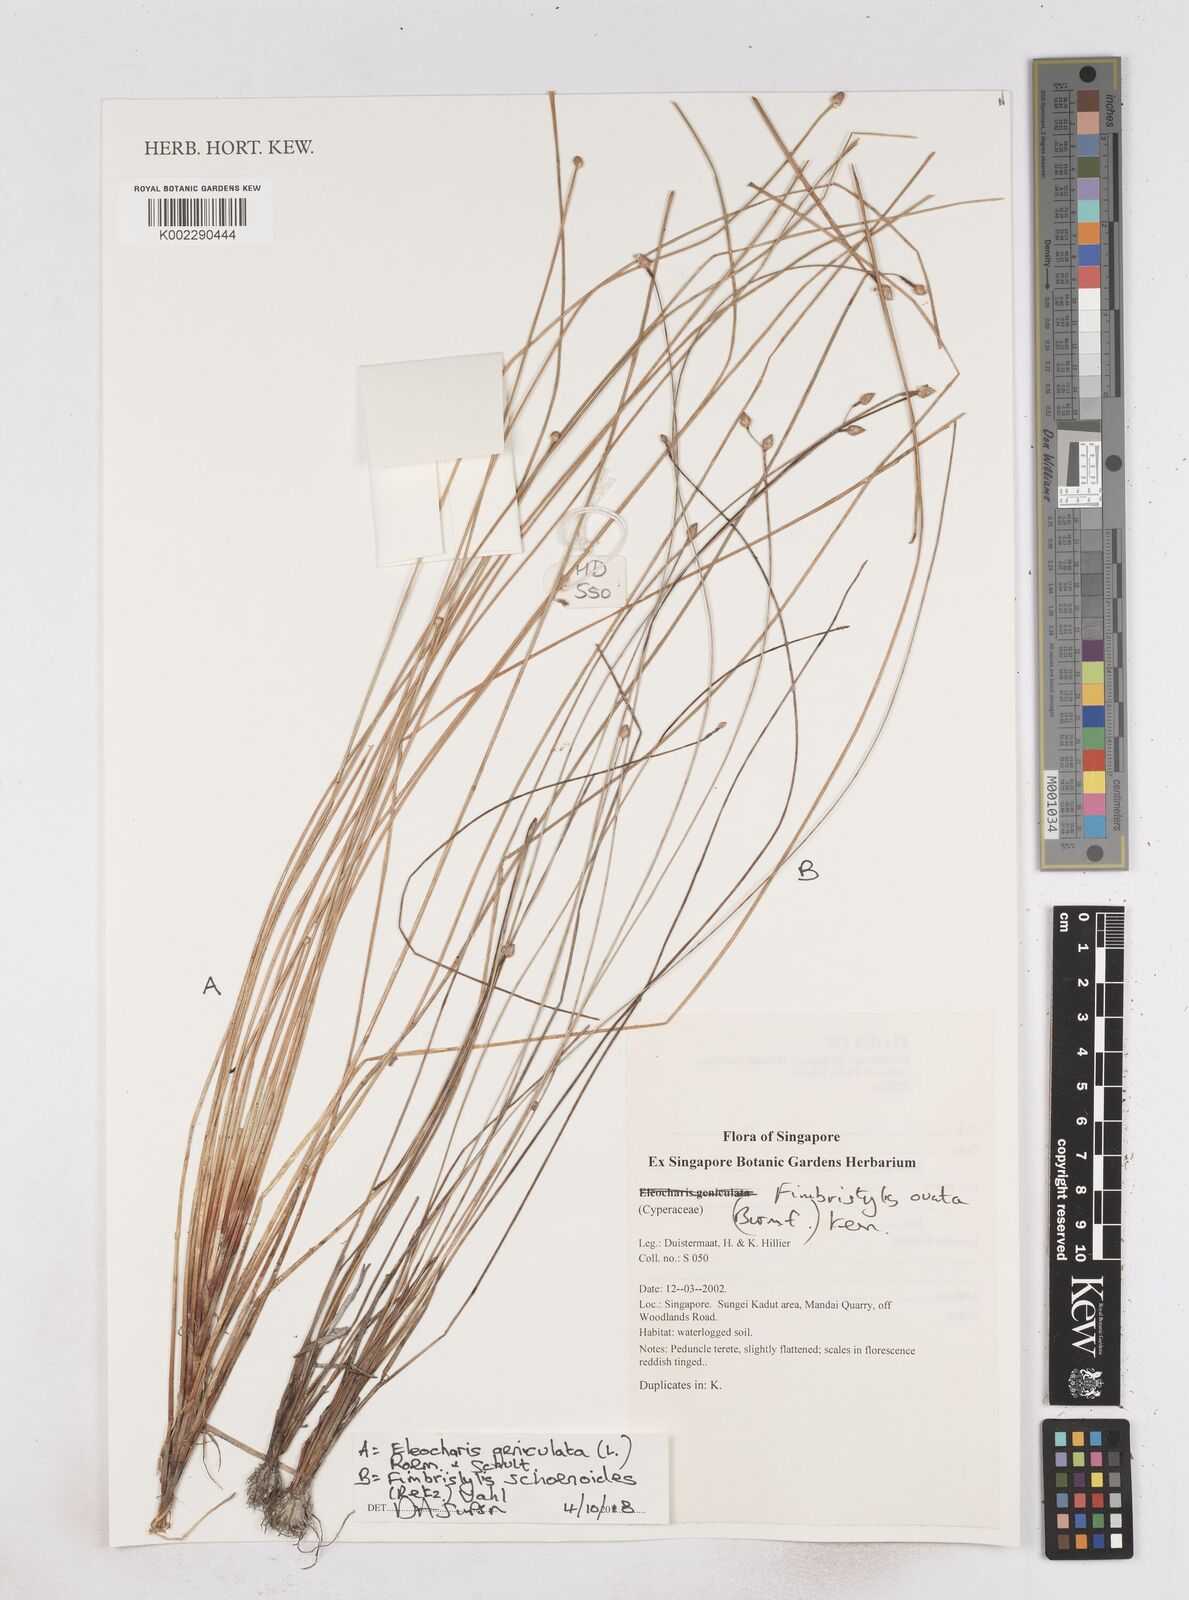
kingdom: Plantae
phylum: Tracheophyta
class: Liliopsida
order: Poales
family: Cyperaceae
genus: Fimbristylis
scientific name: Fimbristylis schoenoides
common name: Ditch fimbry
